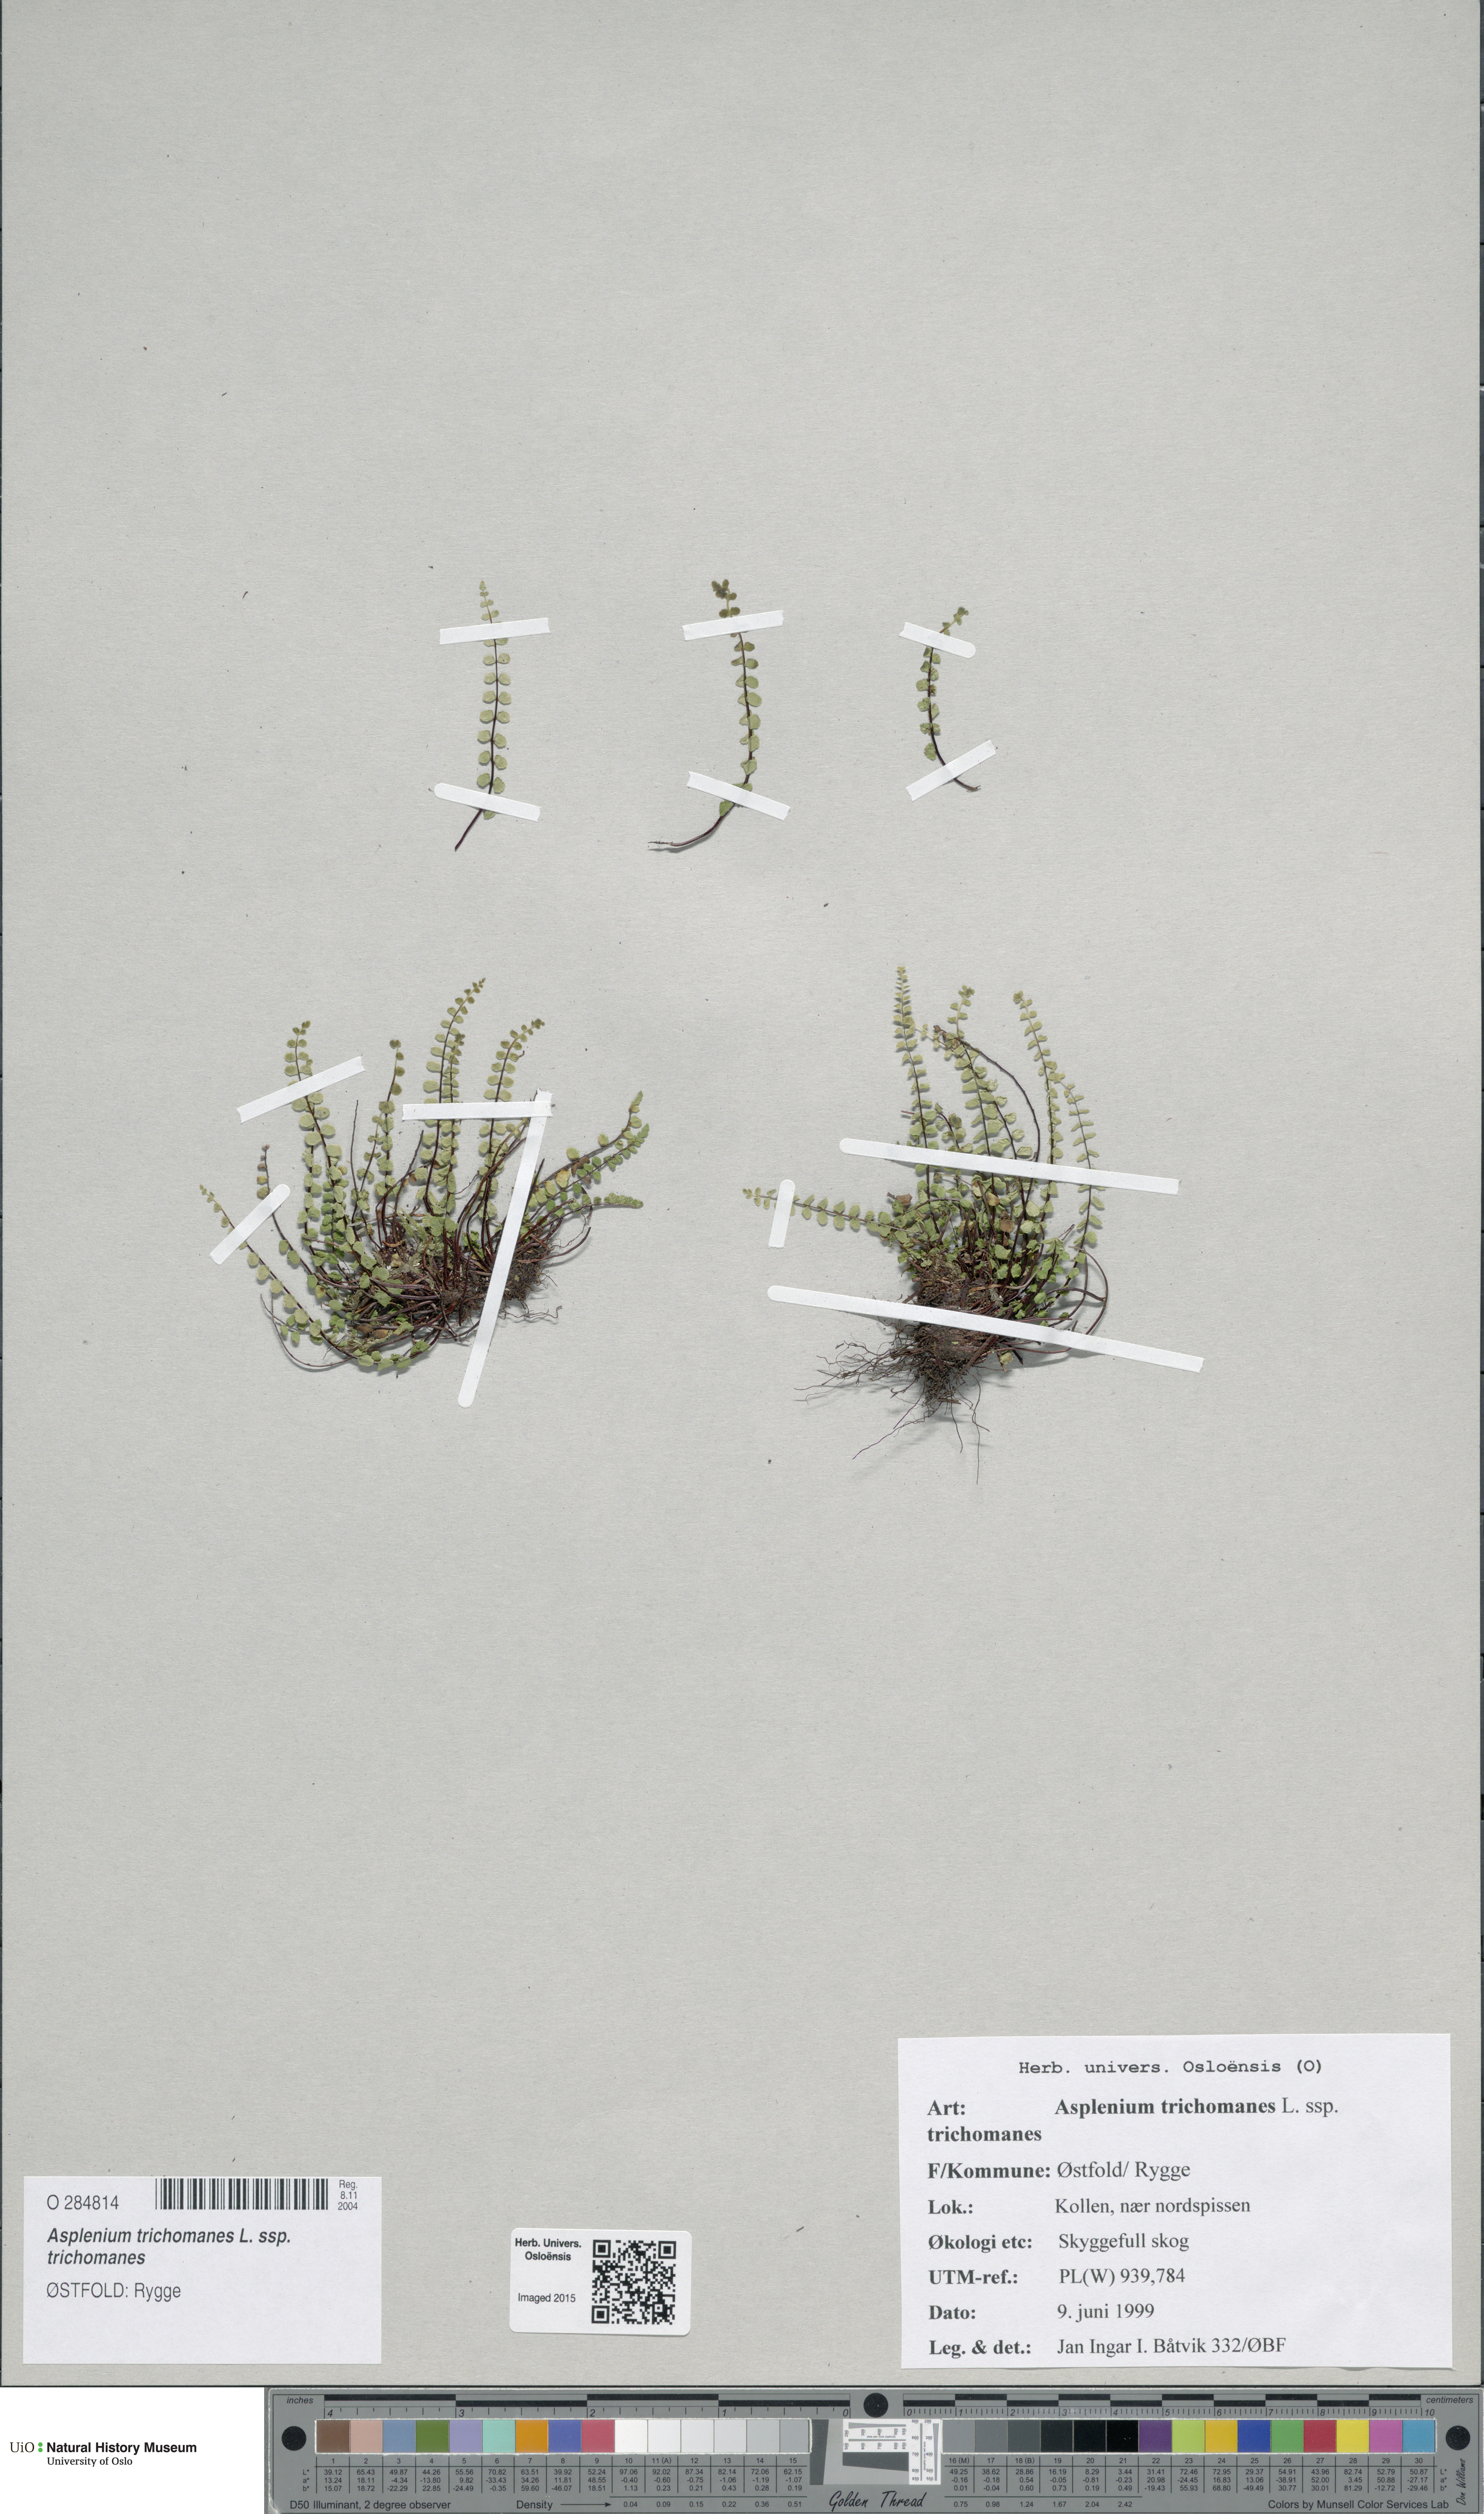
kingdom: Plantae
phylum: Tracheophyta
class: Polypodiopsida
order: Polypodiales
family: Aspleniaceae
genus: Asplenium
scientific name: Asplenium trichomanes
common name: Maidenhair spleenwort
